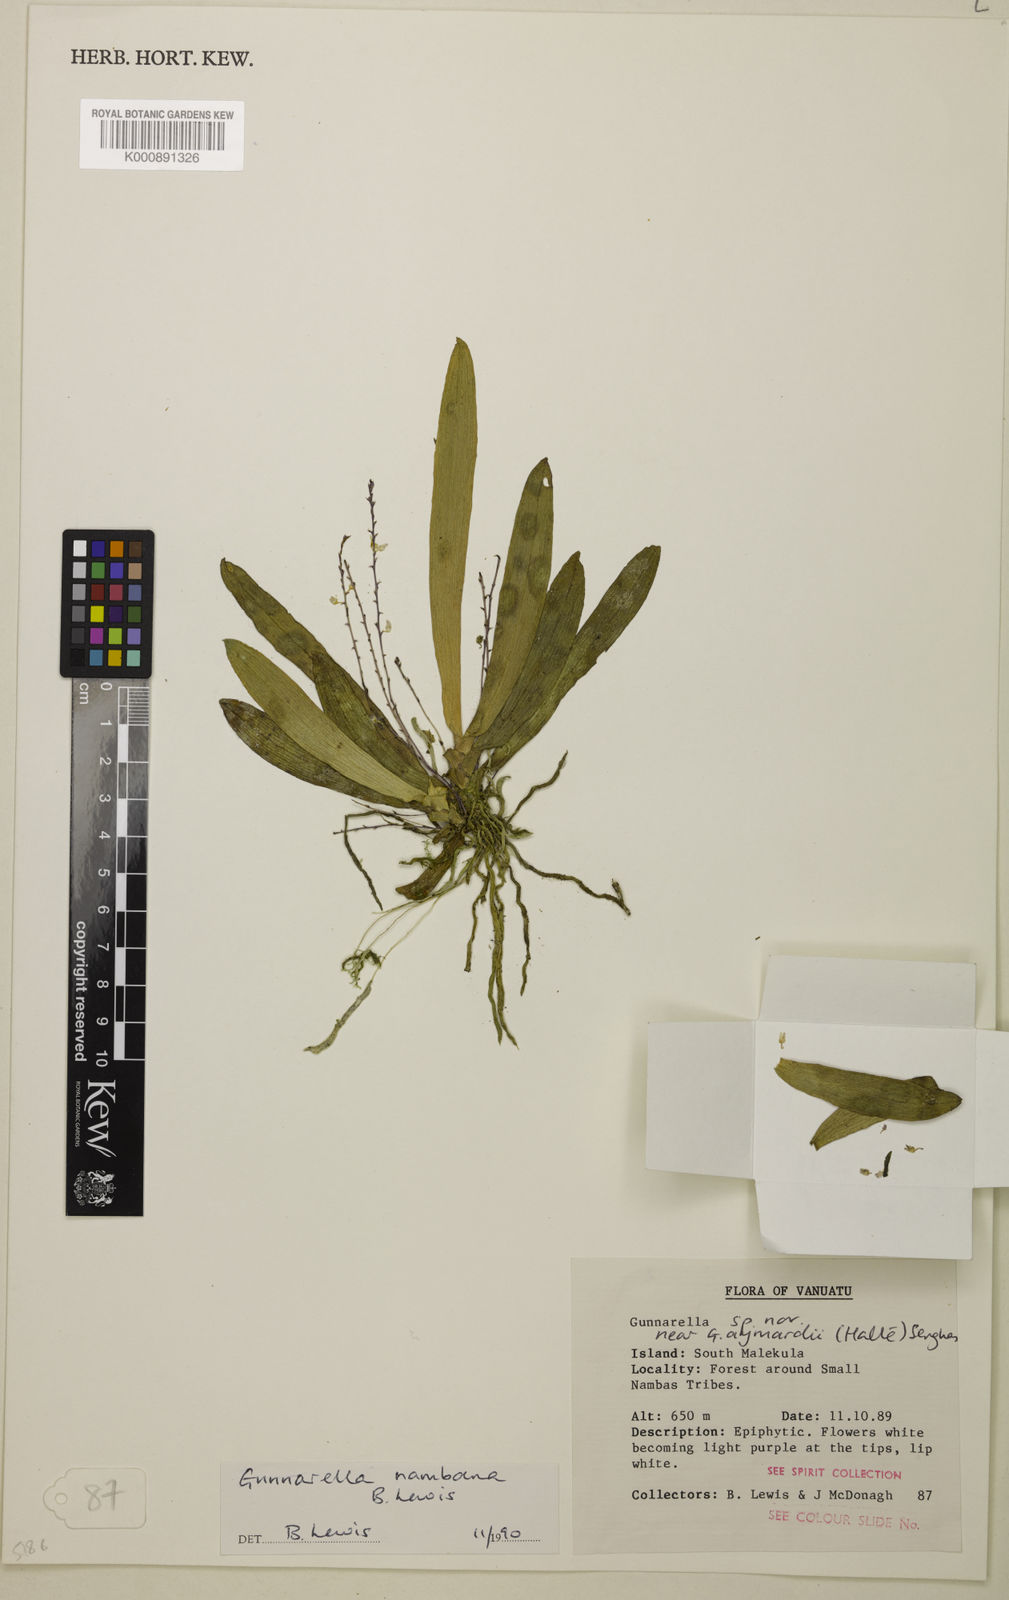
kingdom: Plantae
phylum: Tracheophyta
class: Liliopsida
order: Asparagales
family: Orchidaceae
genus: Bogoria
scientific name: Bogoria nambana
